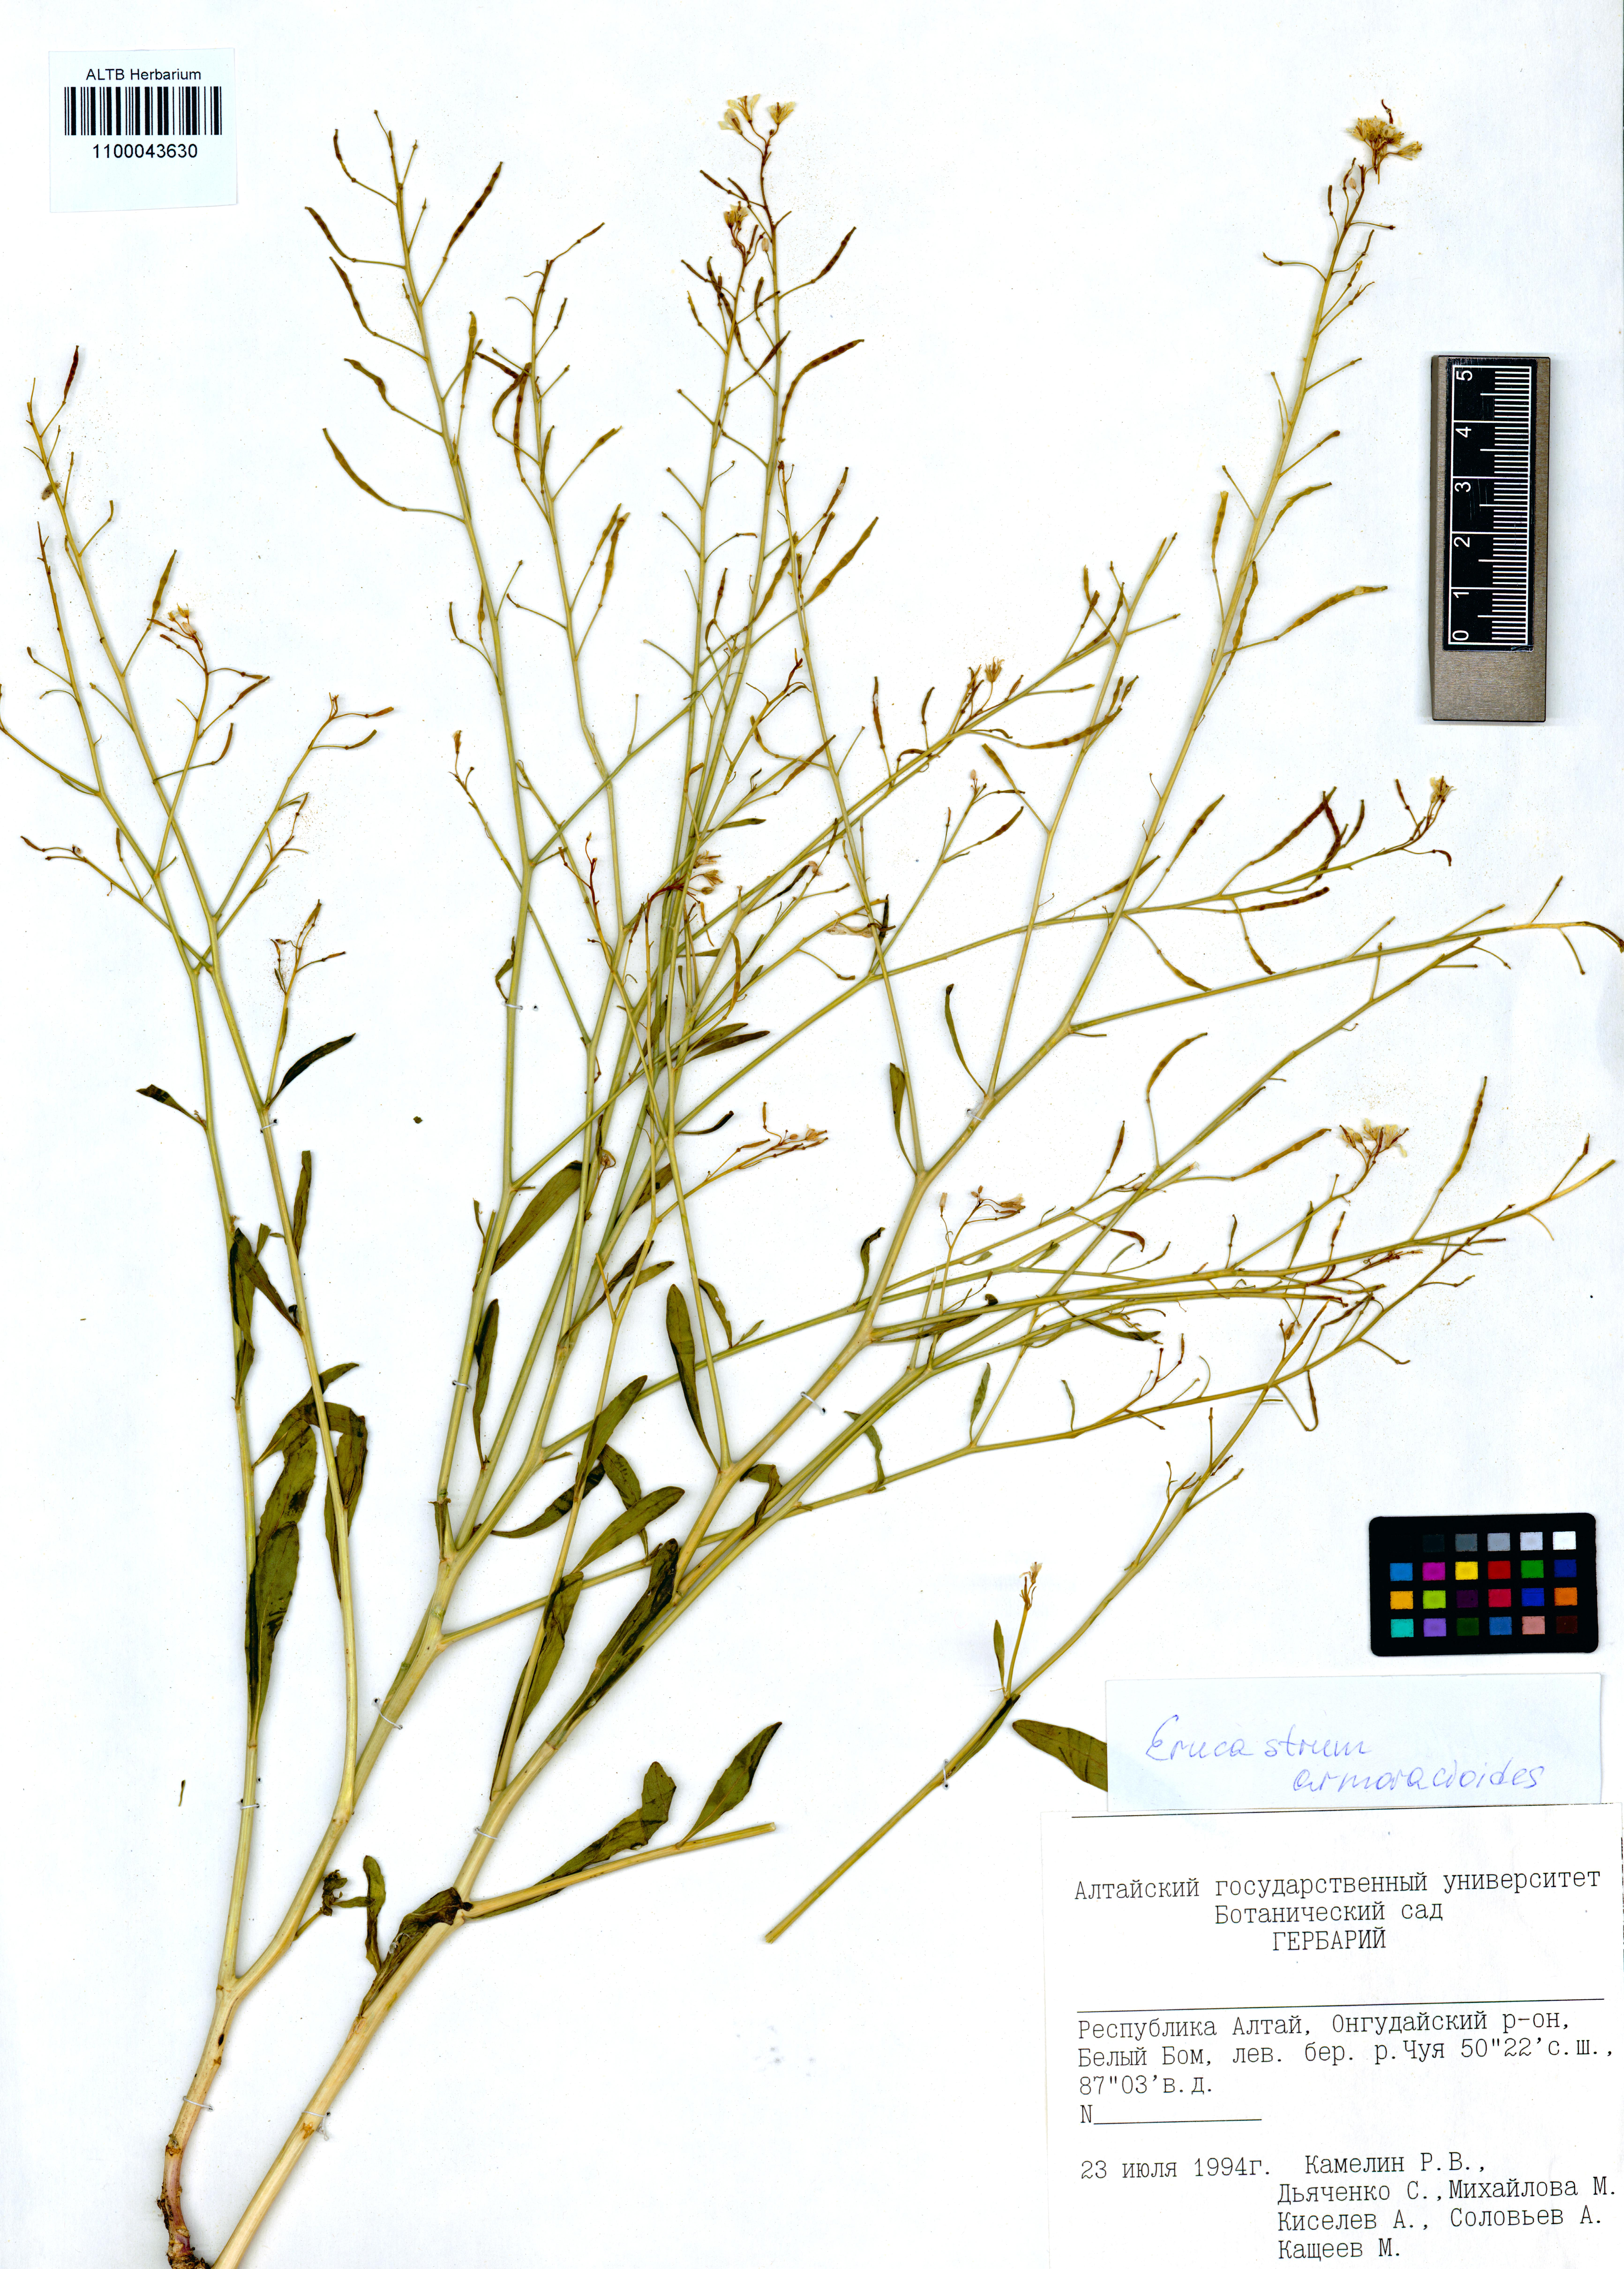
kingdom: Plantae
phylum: Tracheophyta
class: Magnoliopsida
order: Brassicales
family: Brassicaceae
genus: Brassica
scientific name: Brassica elongata
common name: Long-stalked rape
